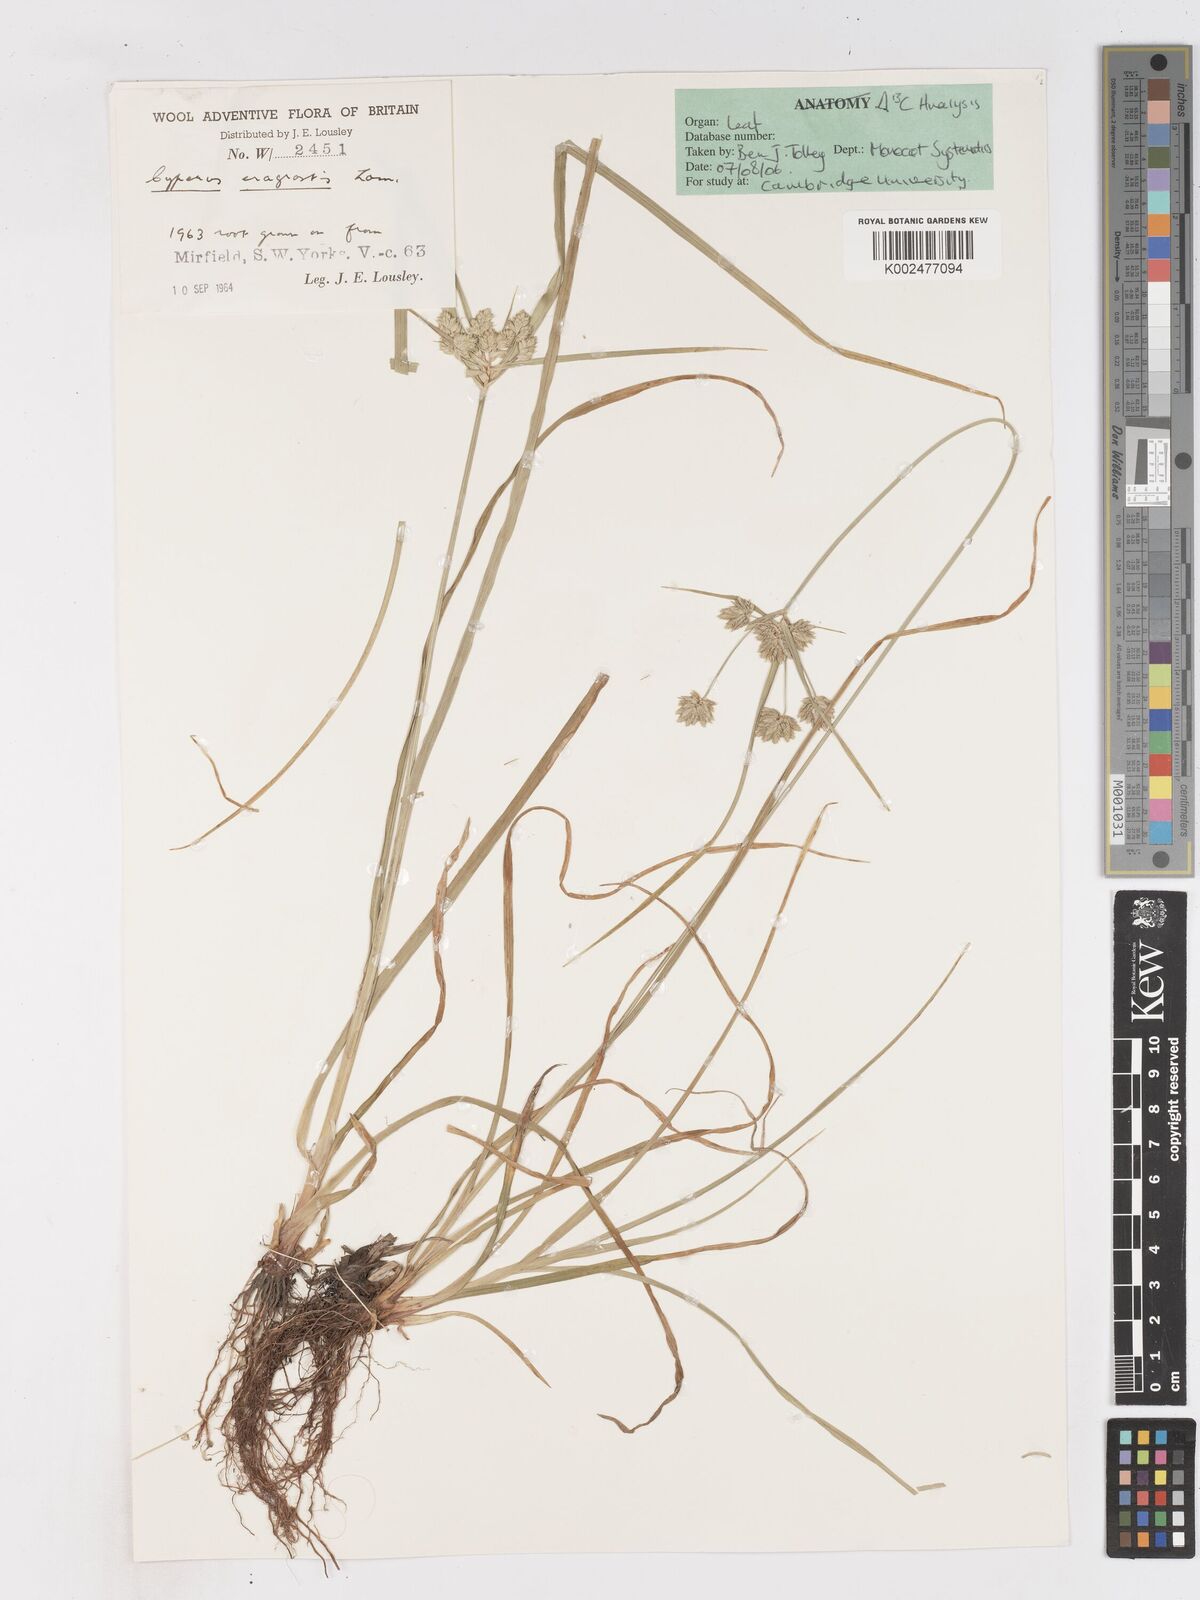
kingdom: Plantae
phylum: Tracheophyta
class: Liliopsida
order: Poales
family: Cyperaceae
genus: Cyperus
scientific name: Cyperus eragrostis
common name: Tall flatsedge
